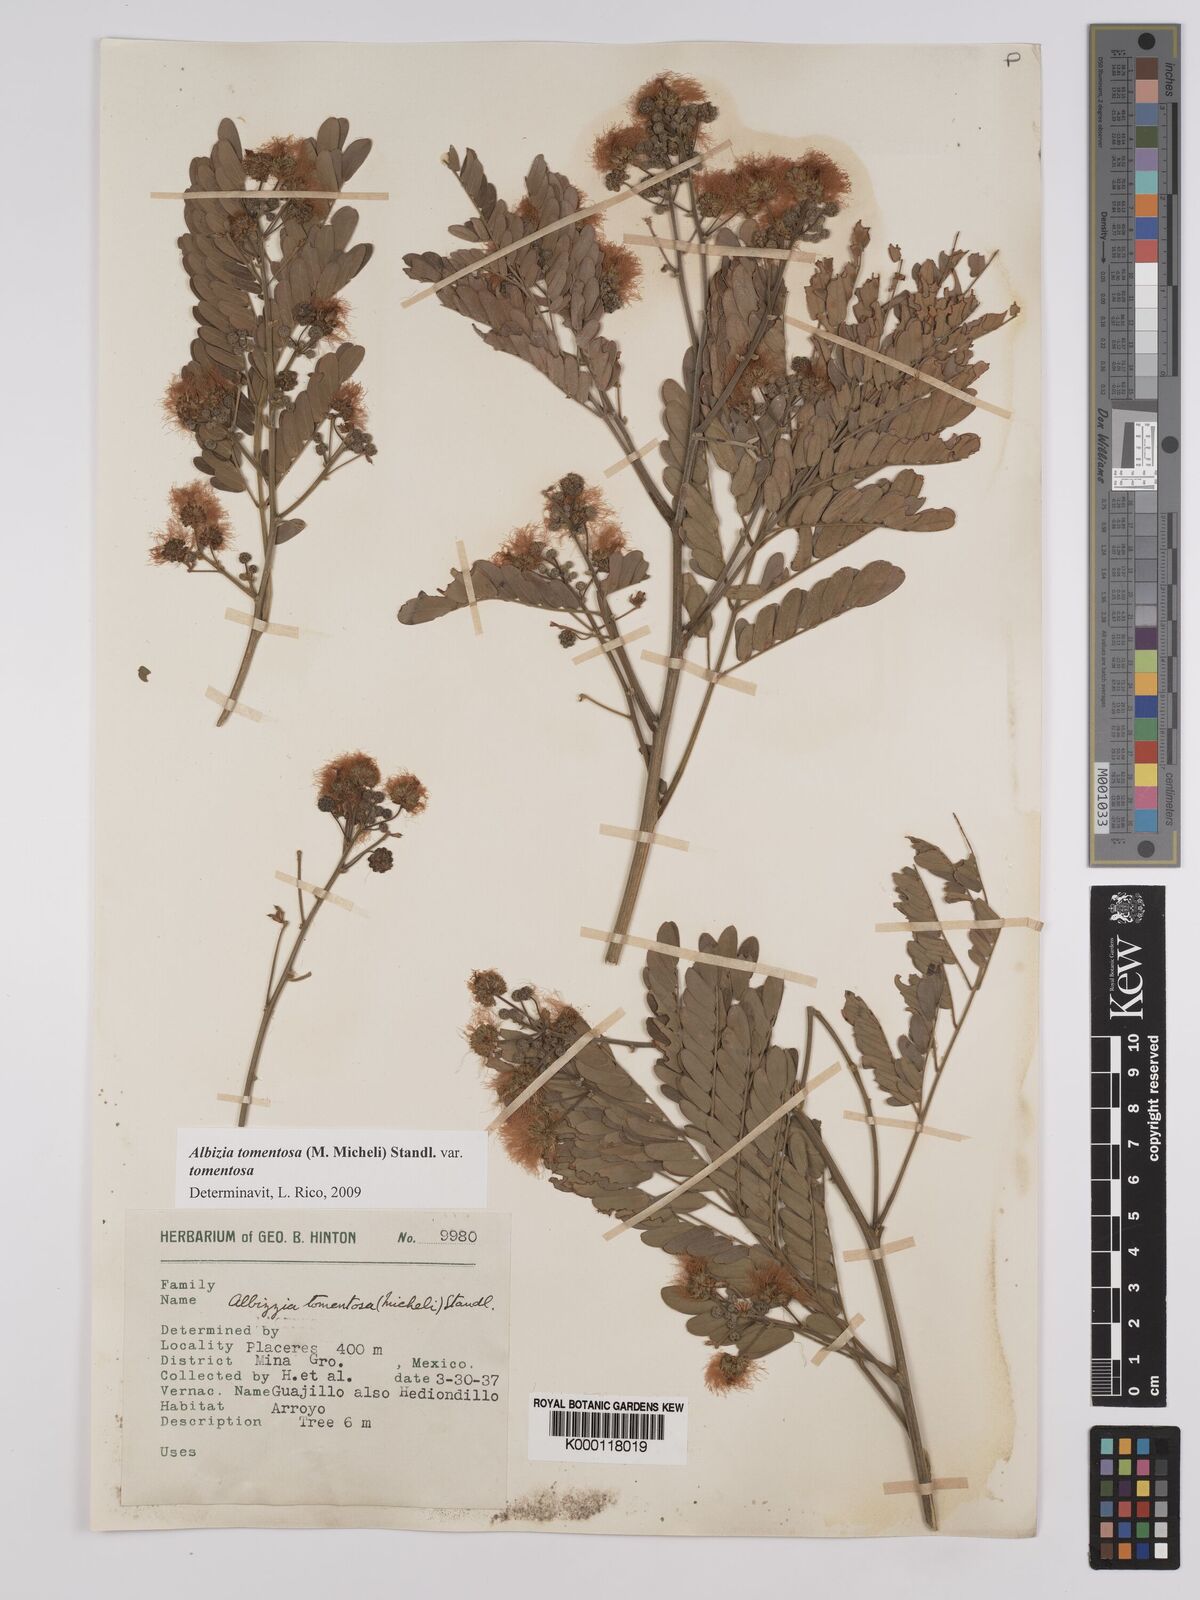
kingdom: Plantae
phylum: Tracheophyta
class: Magnoliopsida
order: Fabales
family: Fabaceae
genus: Albizia
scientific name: Albizia tomentosa
